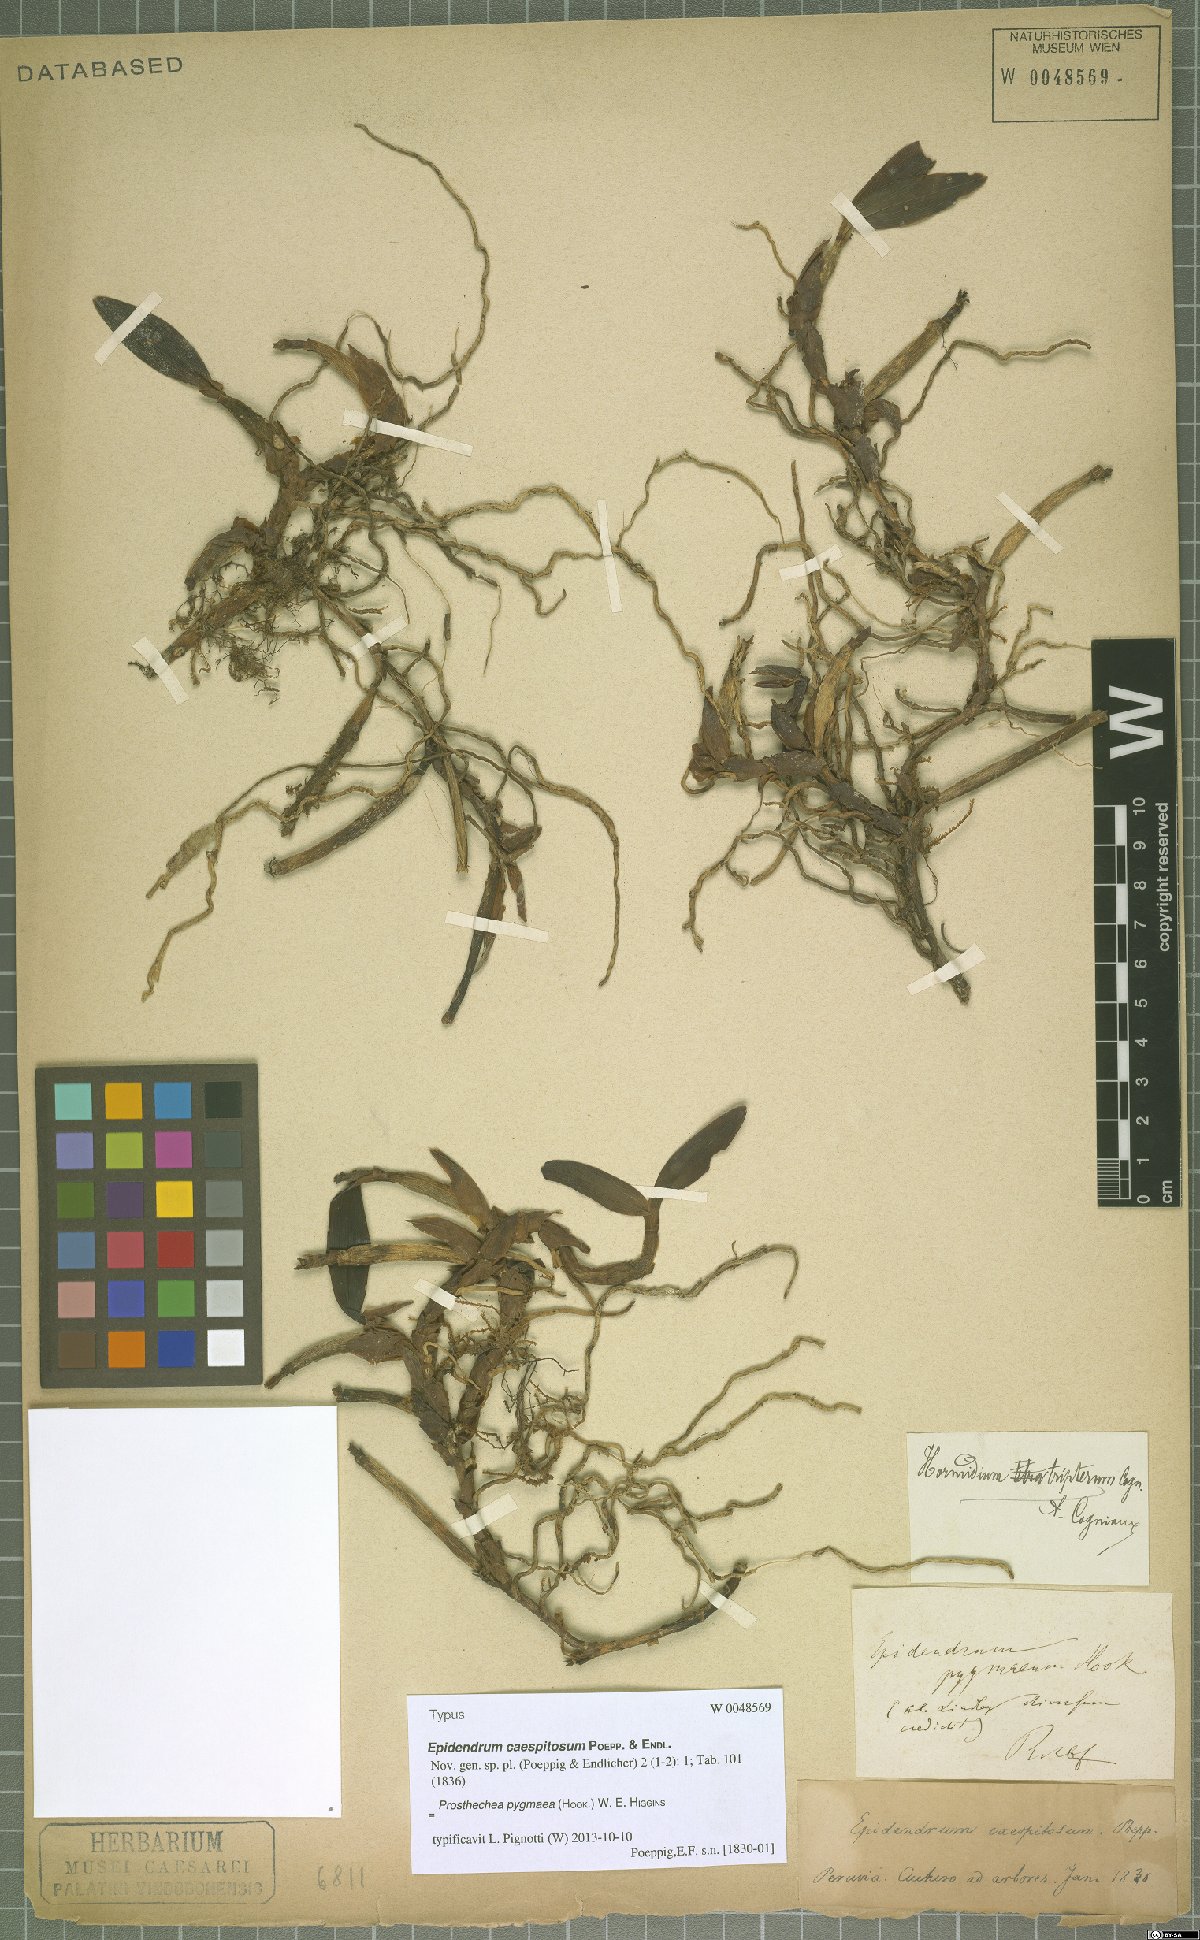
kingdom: Plantae
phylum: Tracheophyta
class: Liliopsida
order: Asparagales
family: Orchidaceae
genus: Prosthechea
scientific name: Prosthechea pygmaea
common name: Dwarf butterfly orchid
